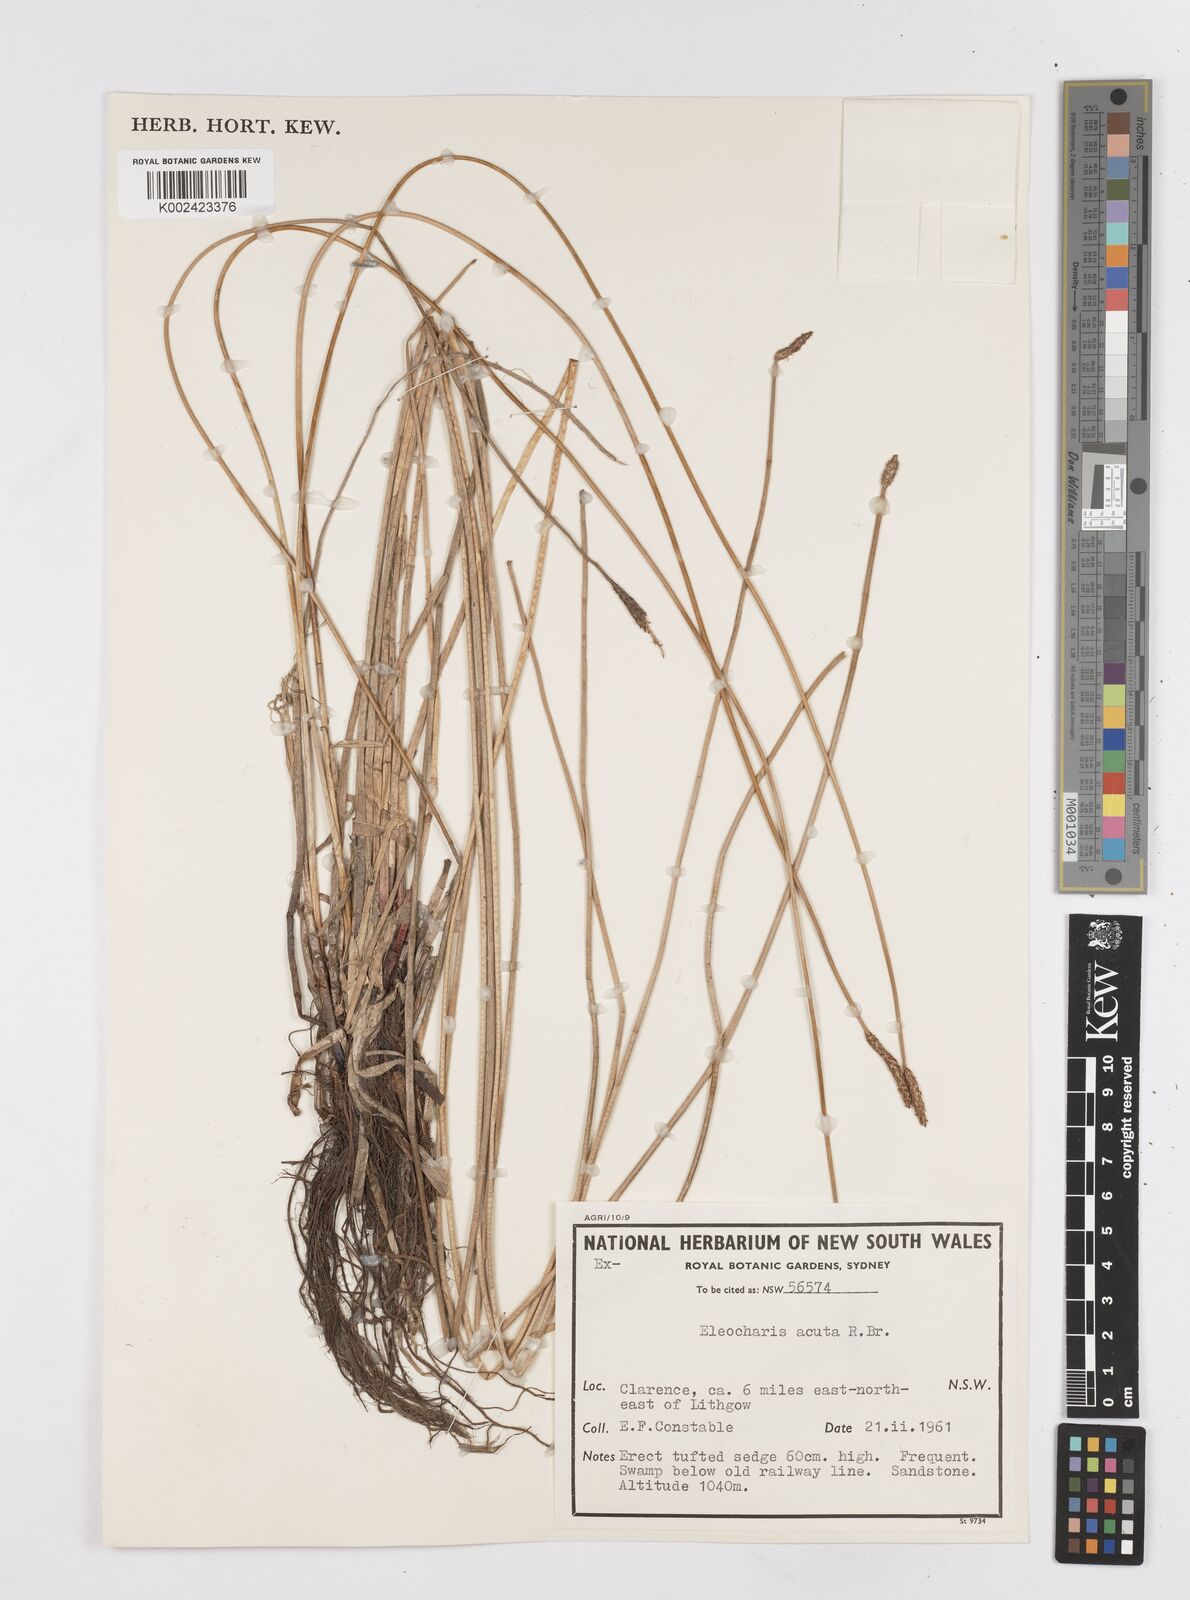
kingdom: Plantae
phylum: Tracheophyta
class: Liliopsida
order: Poales
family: Cyperaceae
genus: Eleocharis
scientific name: Eleocharis acuta
